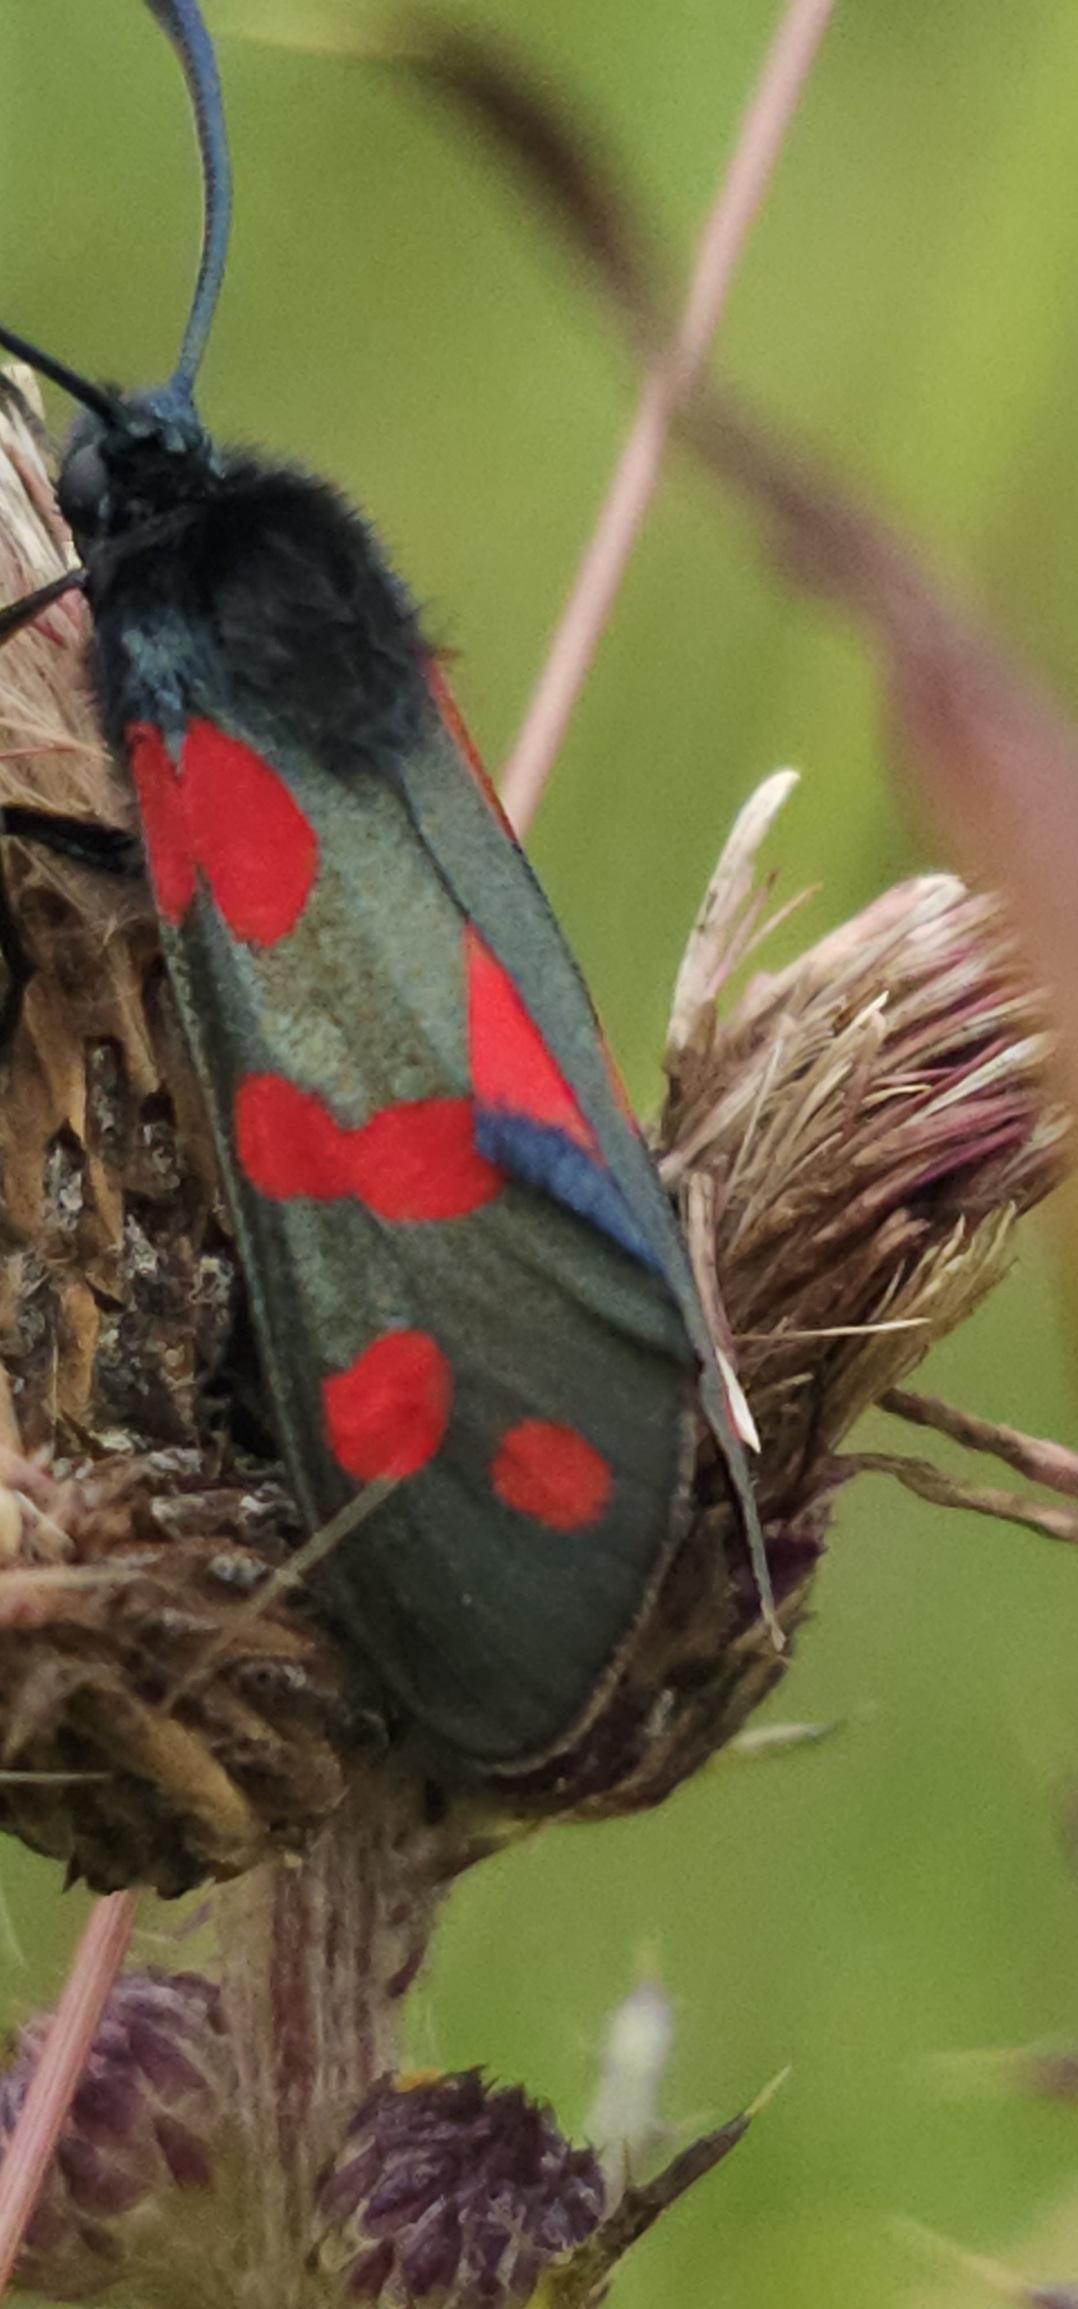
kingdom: Animalia
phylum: Arthropoda
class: Insecta
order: Lepidoptera
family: Zygaenidae
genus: Zygaena
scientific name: Zygaena filipendulae
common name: Seksplettet køllesværmer
